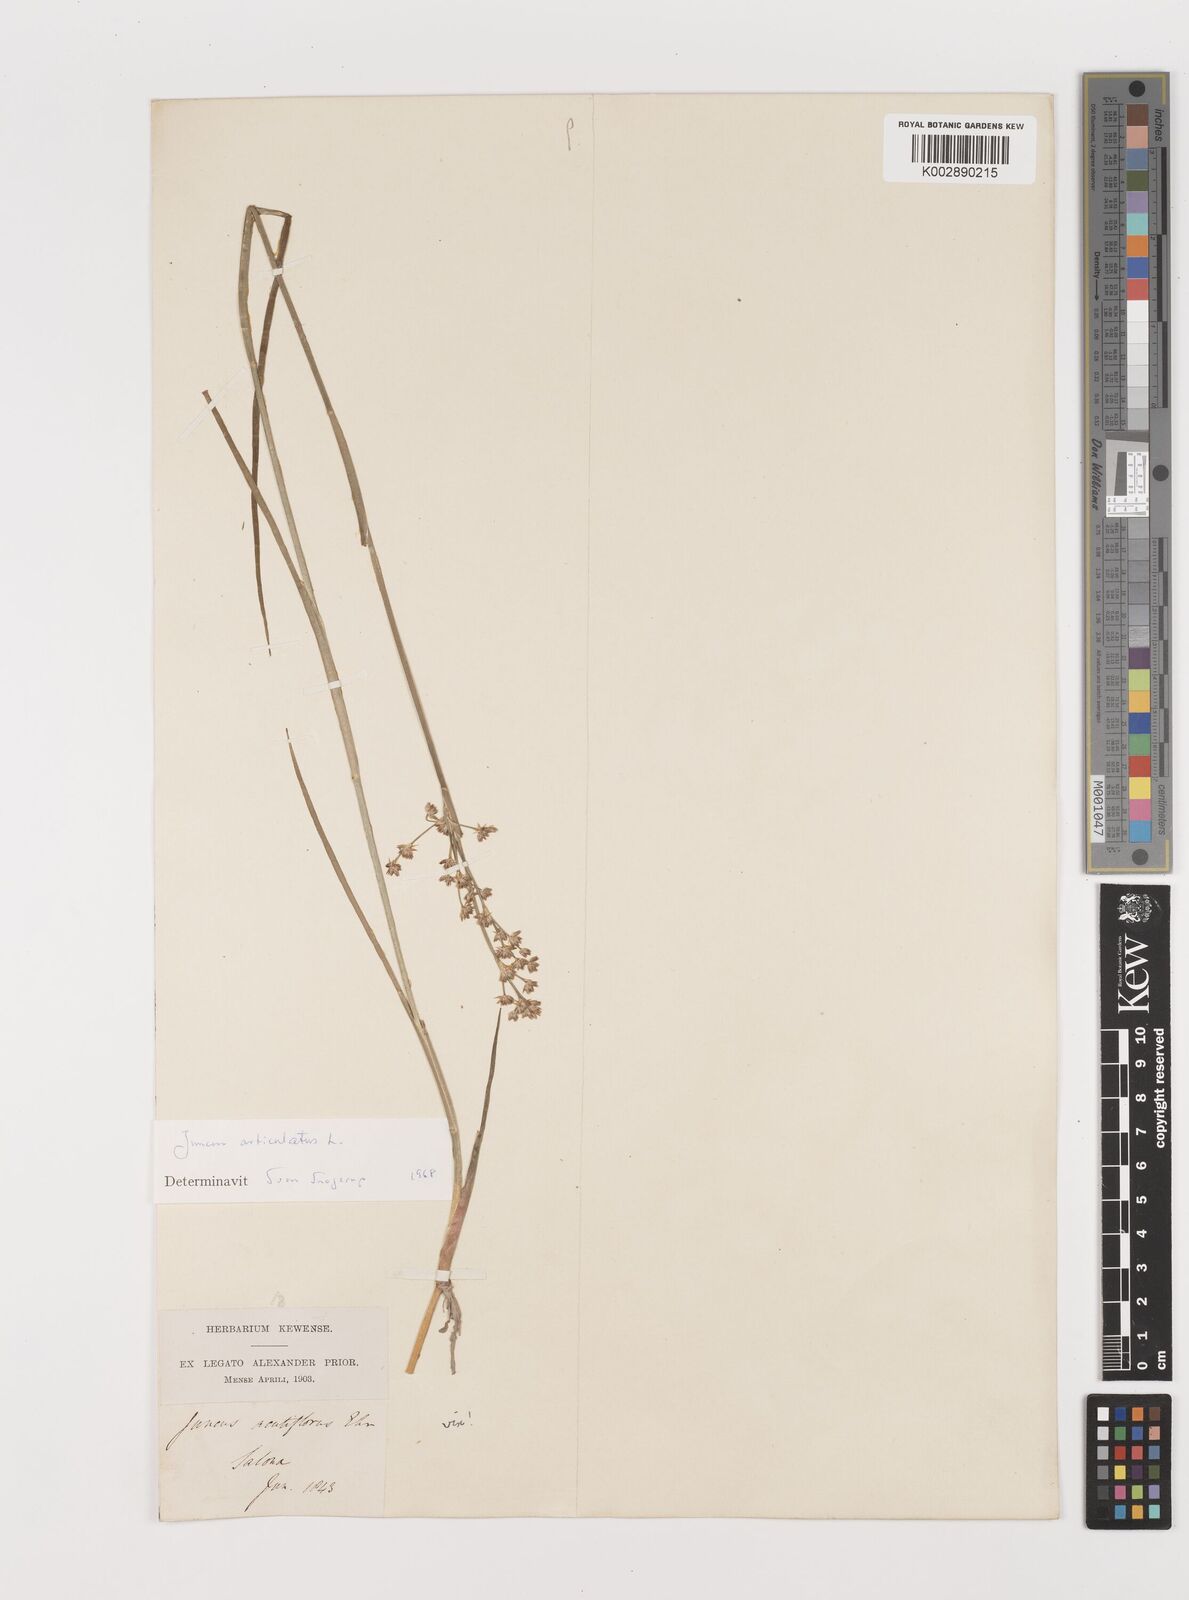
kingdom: Plantae
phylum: Tracheophyta
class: Liliopsida
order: Poales
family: Juncaceae
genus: Juncus
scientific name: Juncus articulatus
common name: Jointed rush
